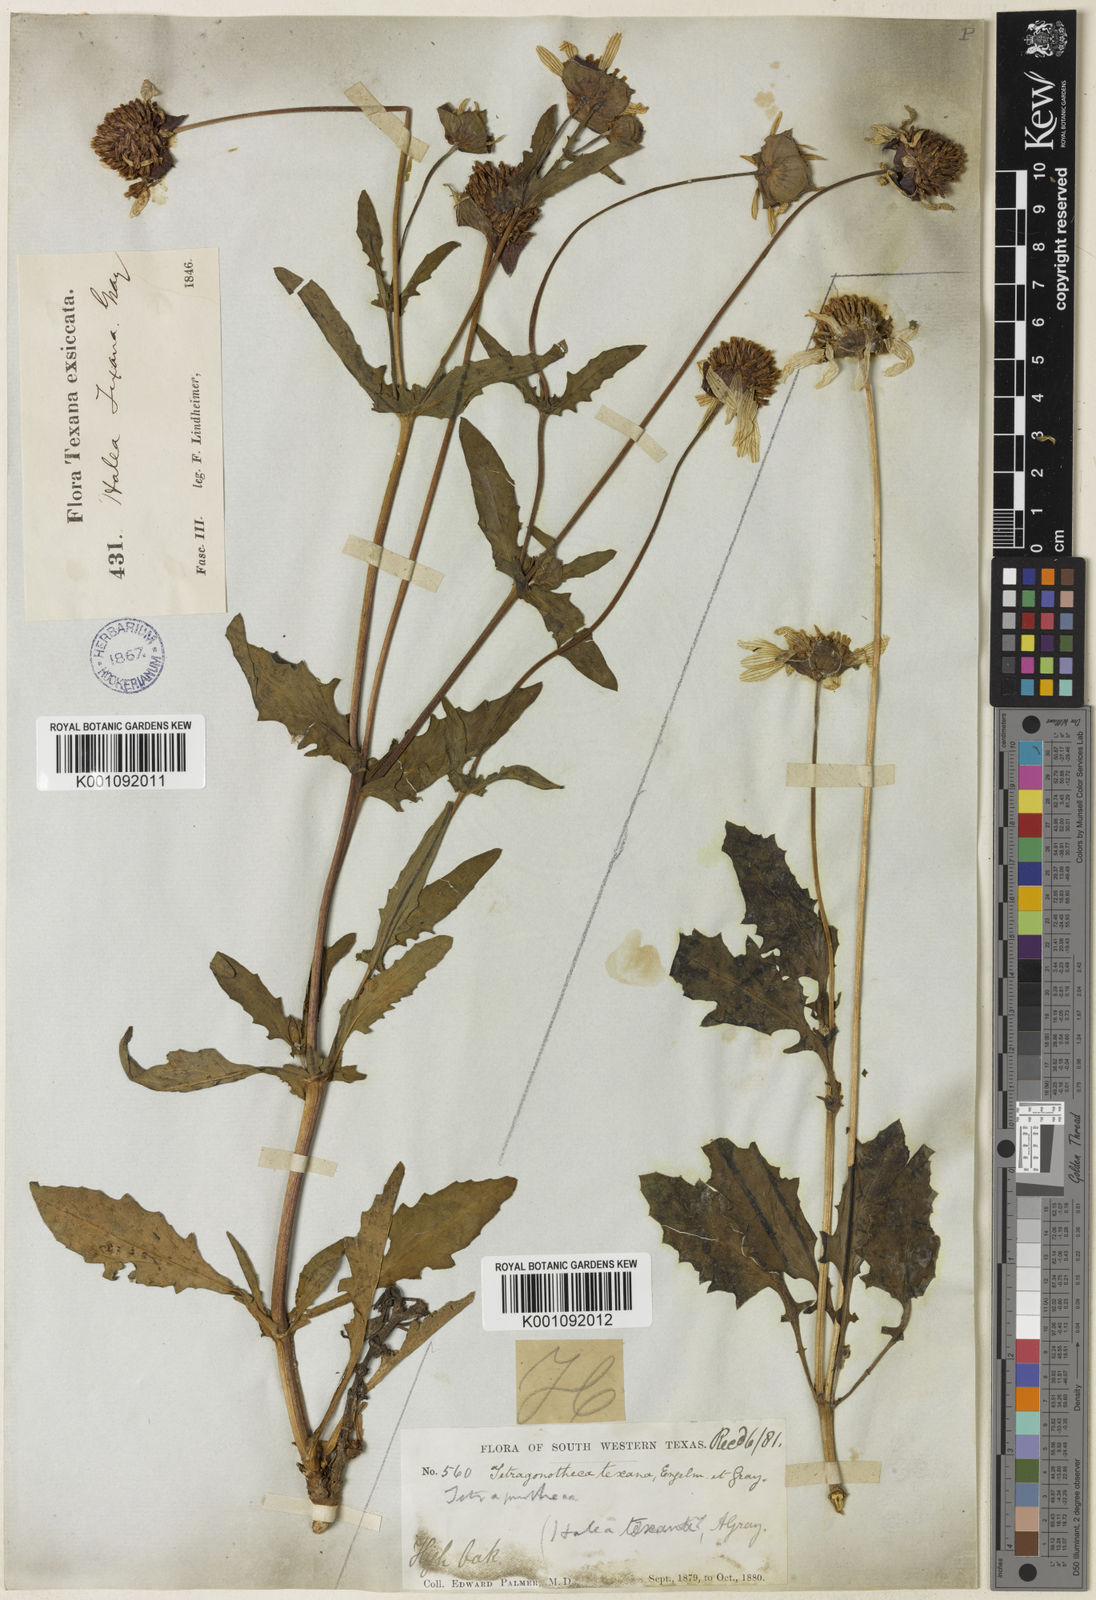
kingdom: Plantae
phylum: Tracheophyta
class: Magnoliopsida
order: Asterales
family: Asteraceae
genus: Tetragonotheca
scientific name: Tetragonotheca texana
